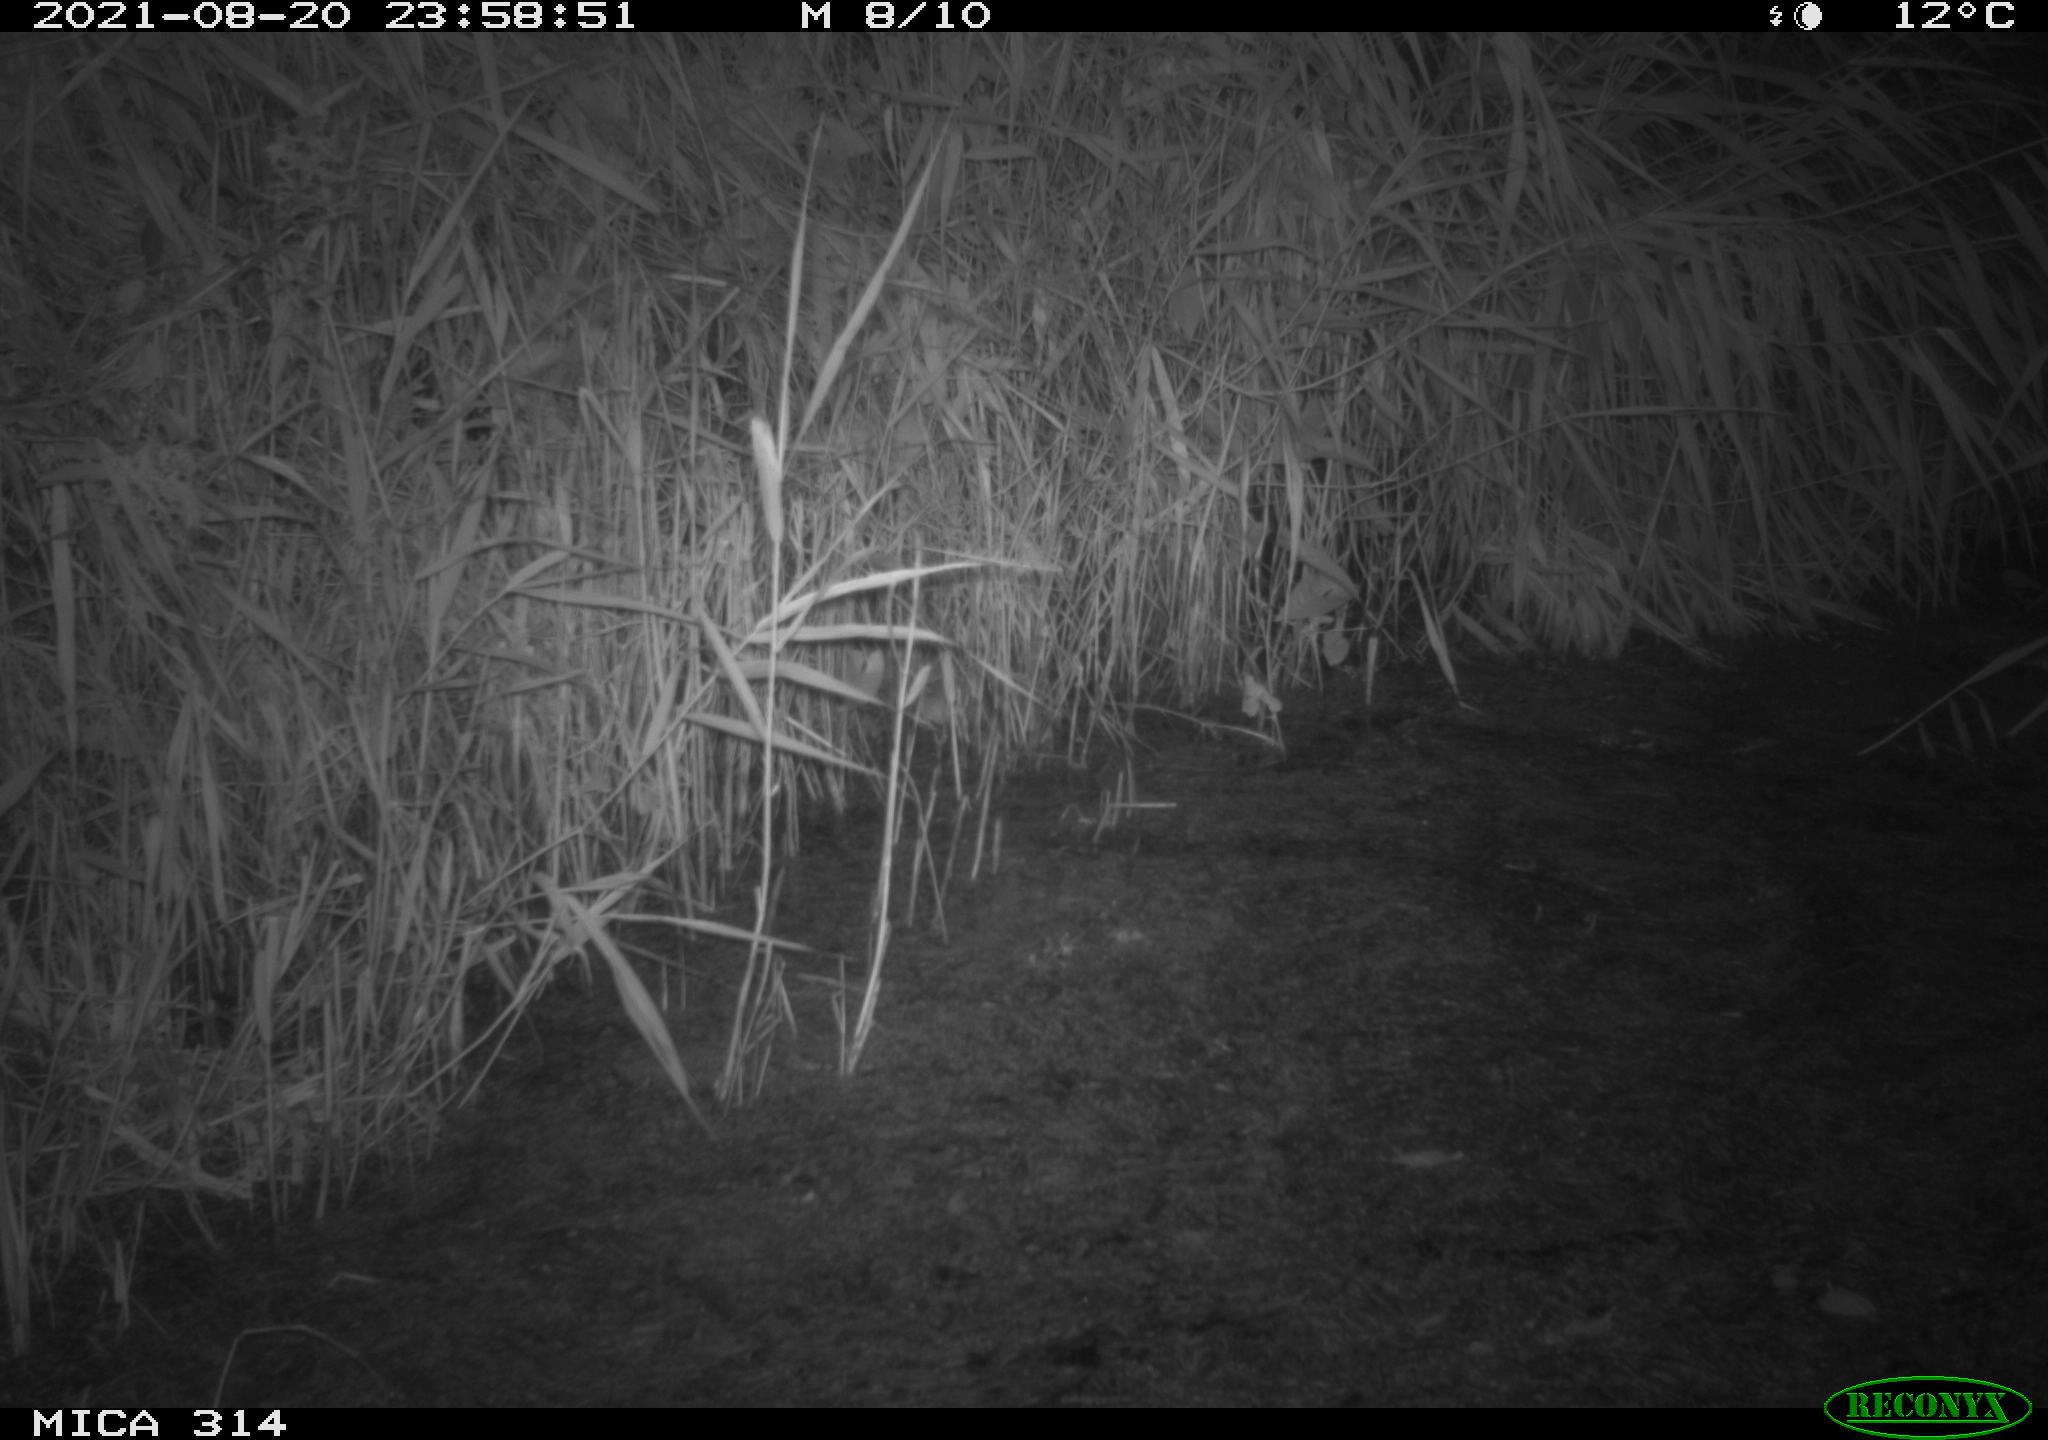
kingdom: Animalia
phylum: Chordata
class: Mammalia
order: Rodentia
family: Muridae
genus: Rattus
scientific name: Rattus norvegicus
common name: Brown rat
